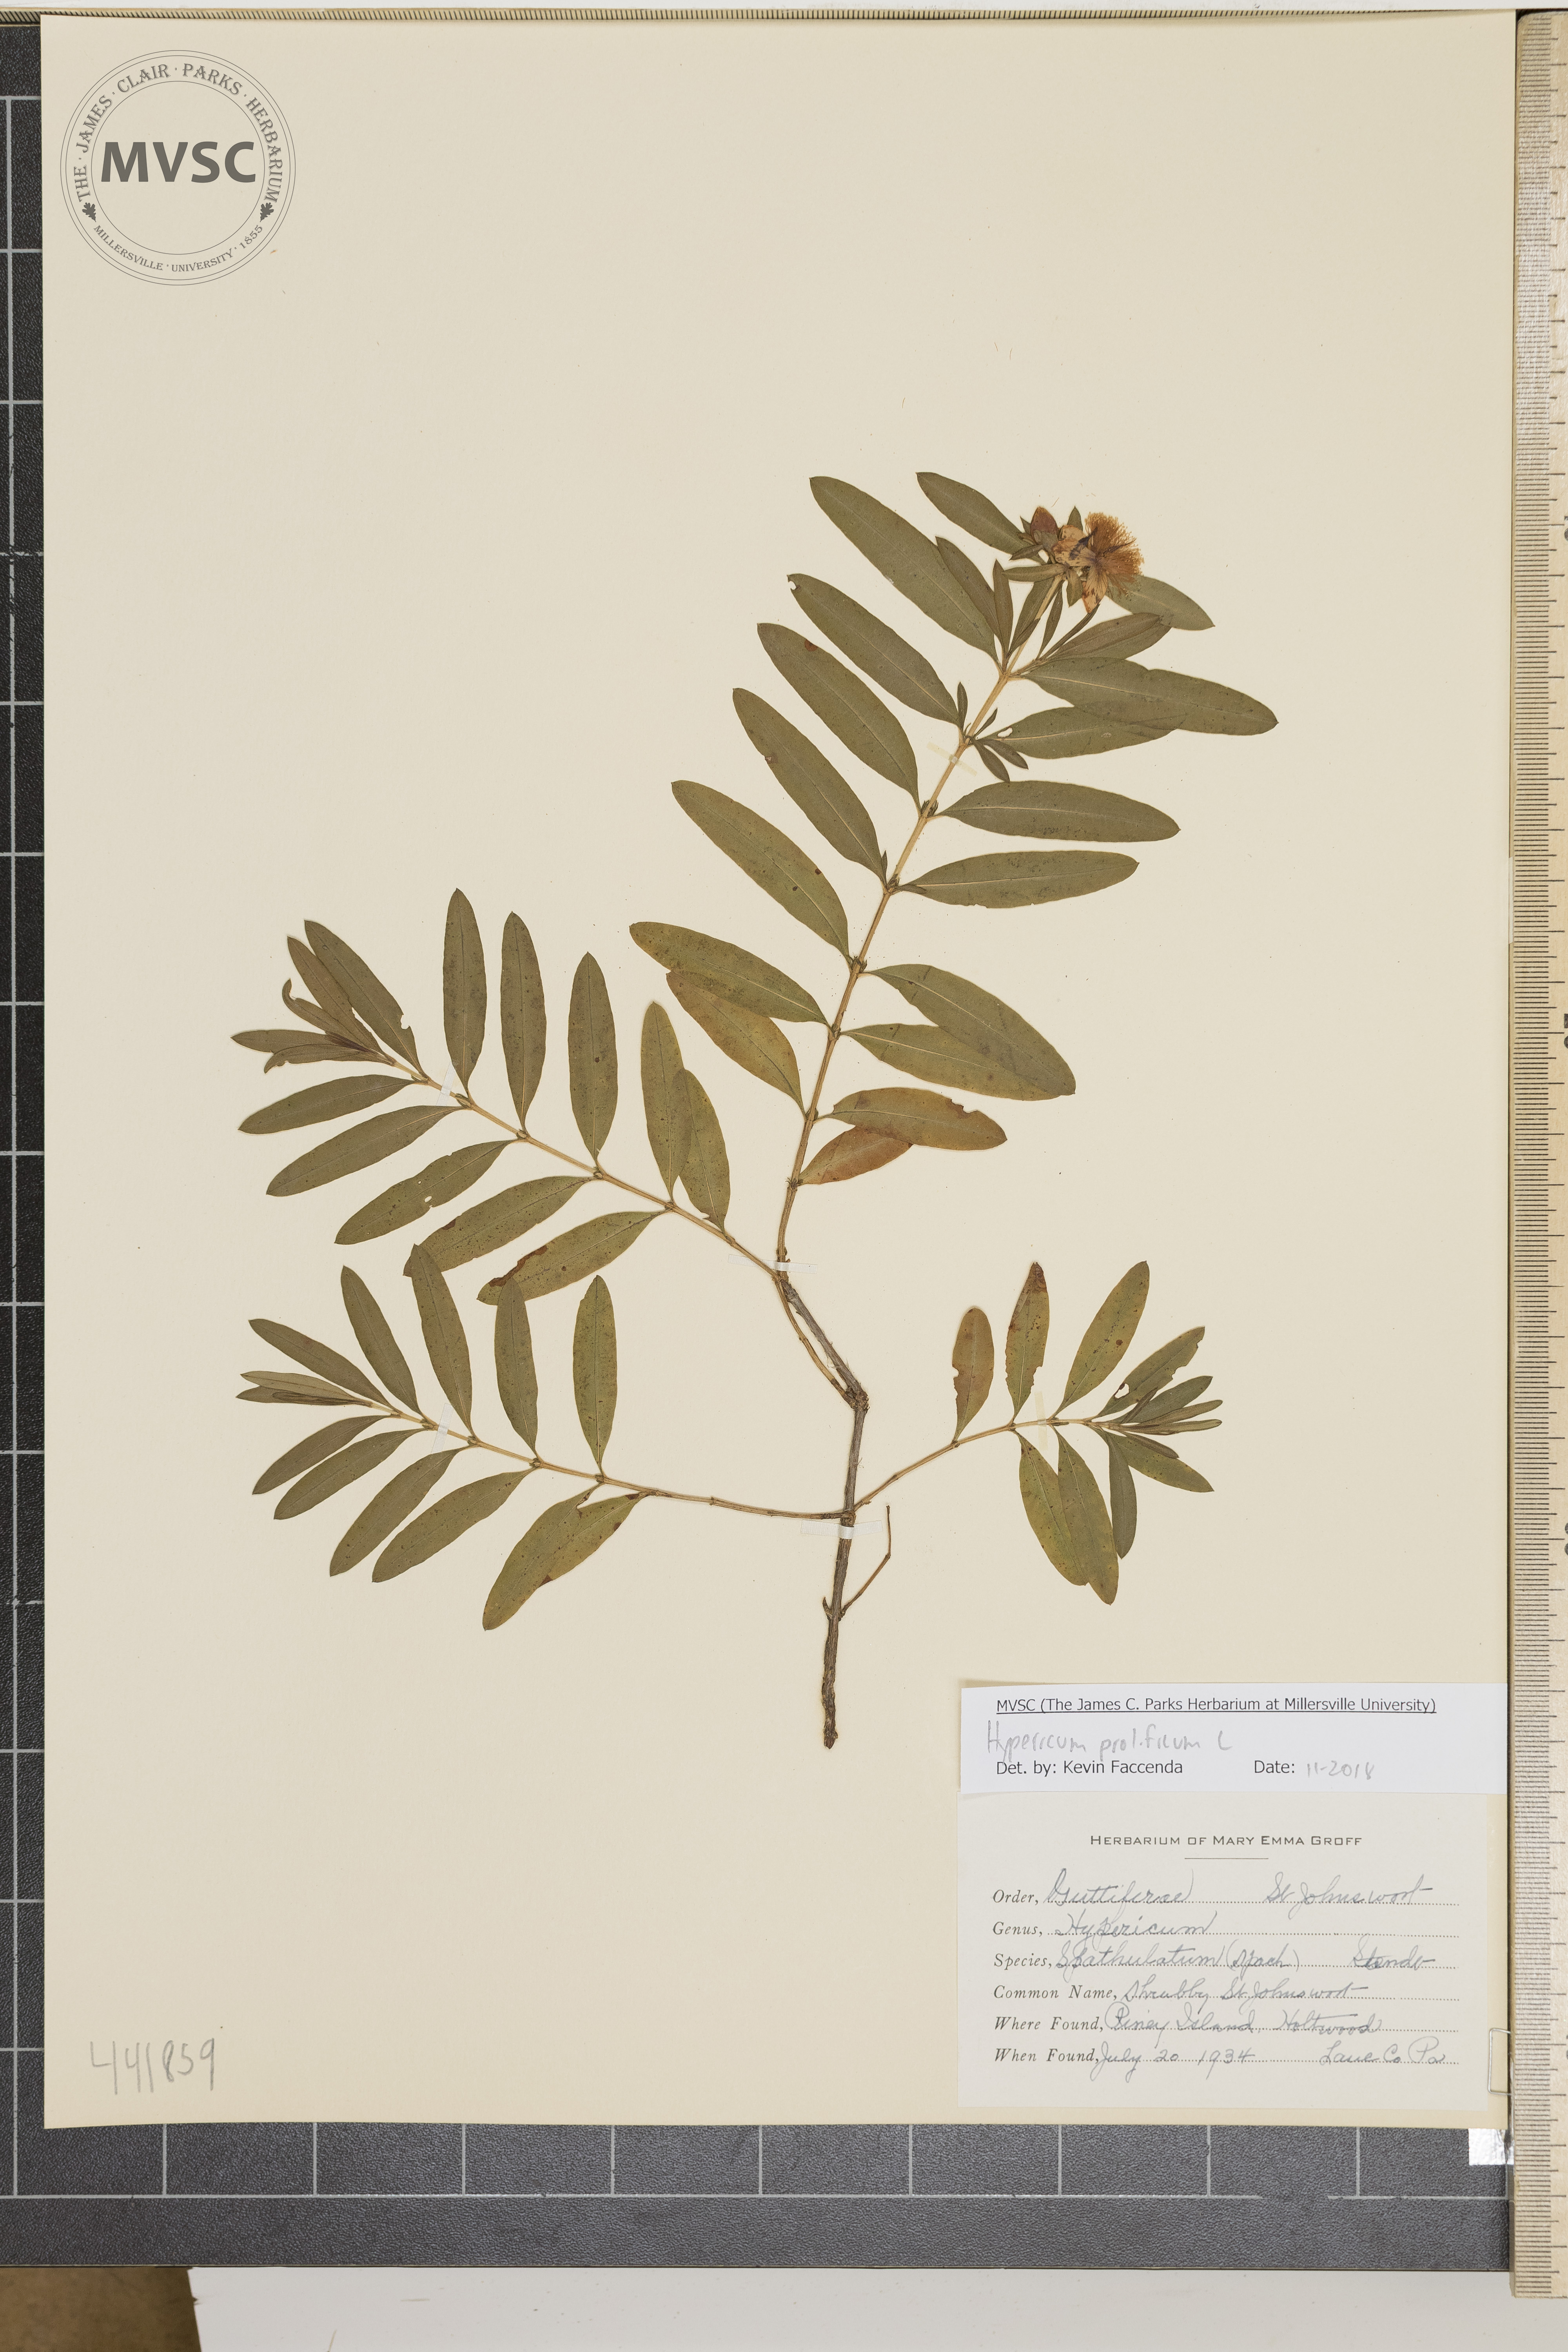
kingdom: Plantae
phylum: Tracheophyta
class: Magnoliopsida
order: Malpighiales
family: Hypericaceae
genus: Hypericum
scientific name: Hypericum prolificum
